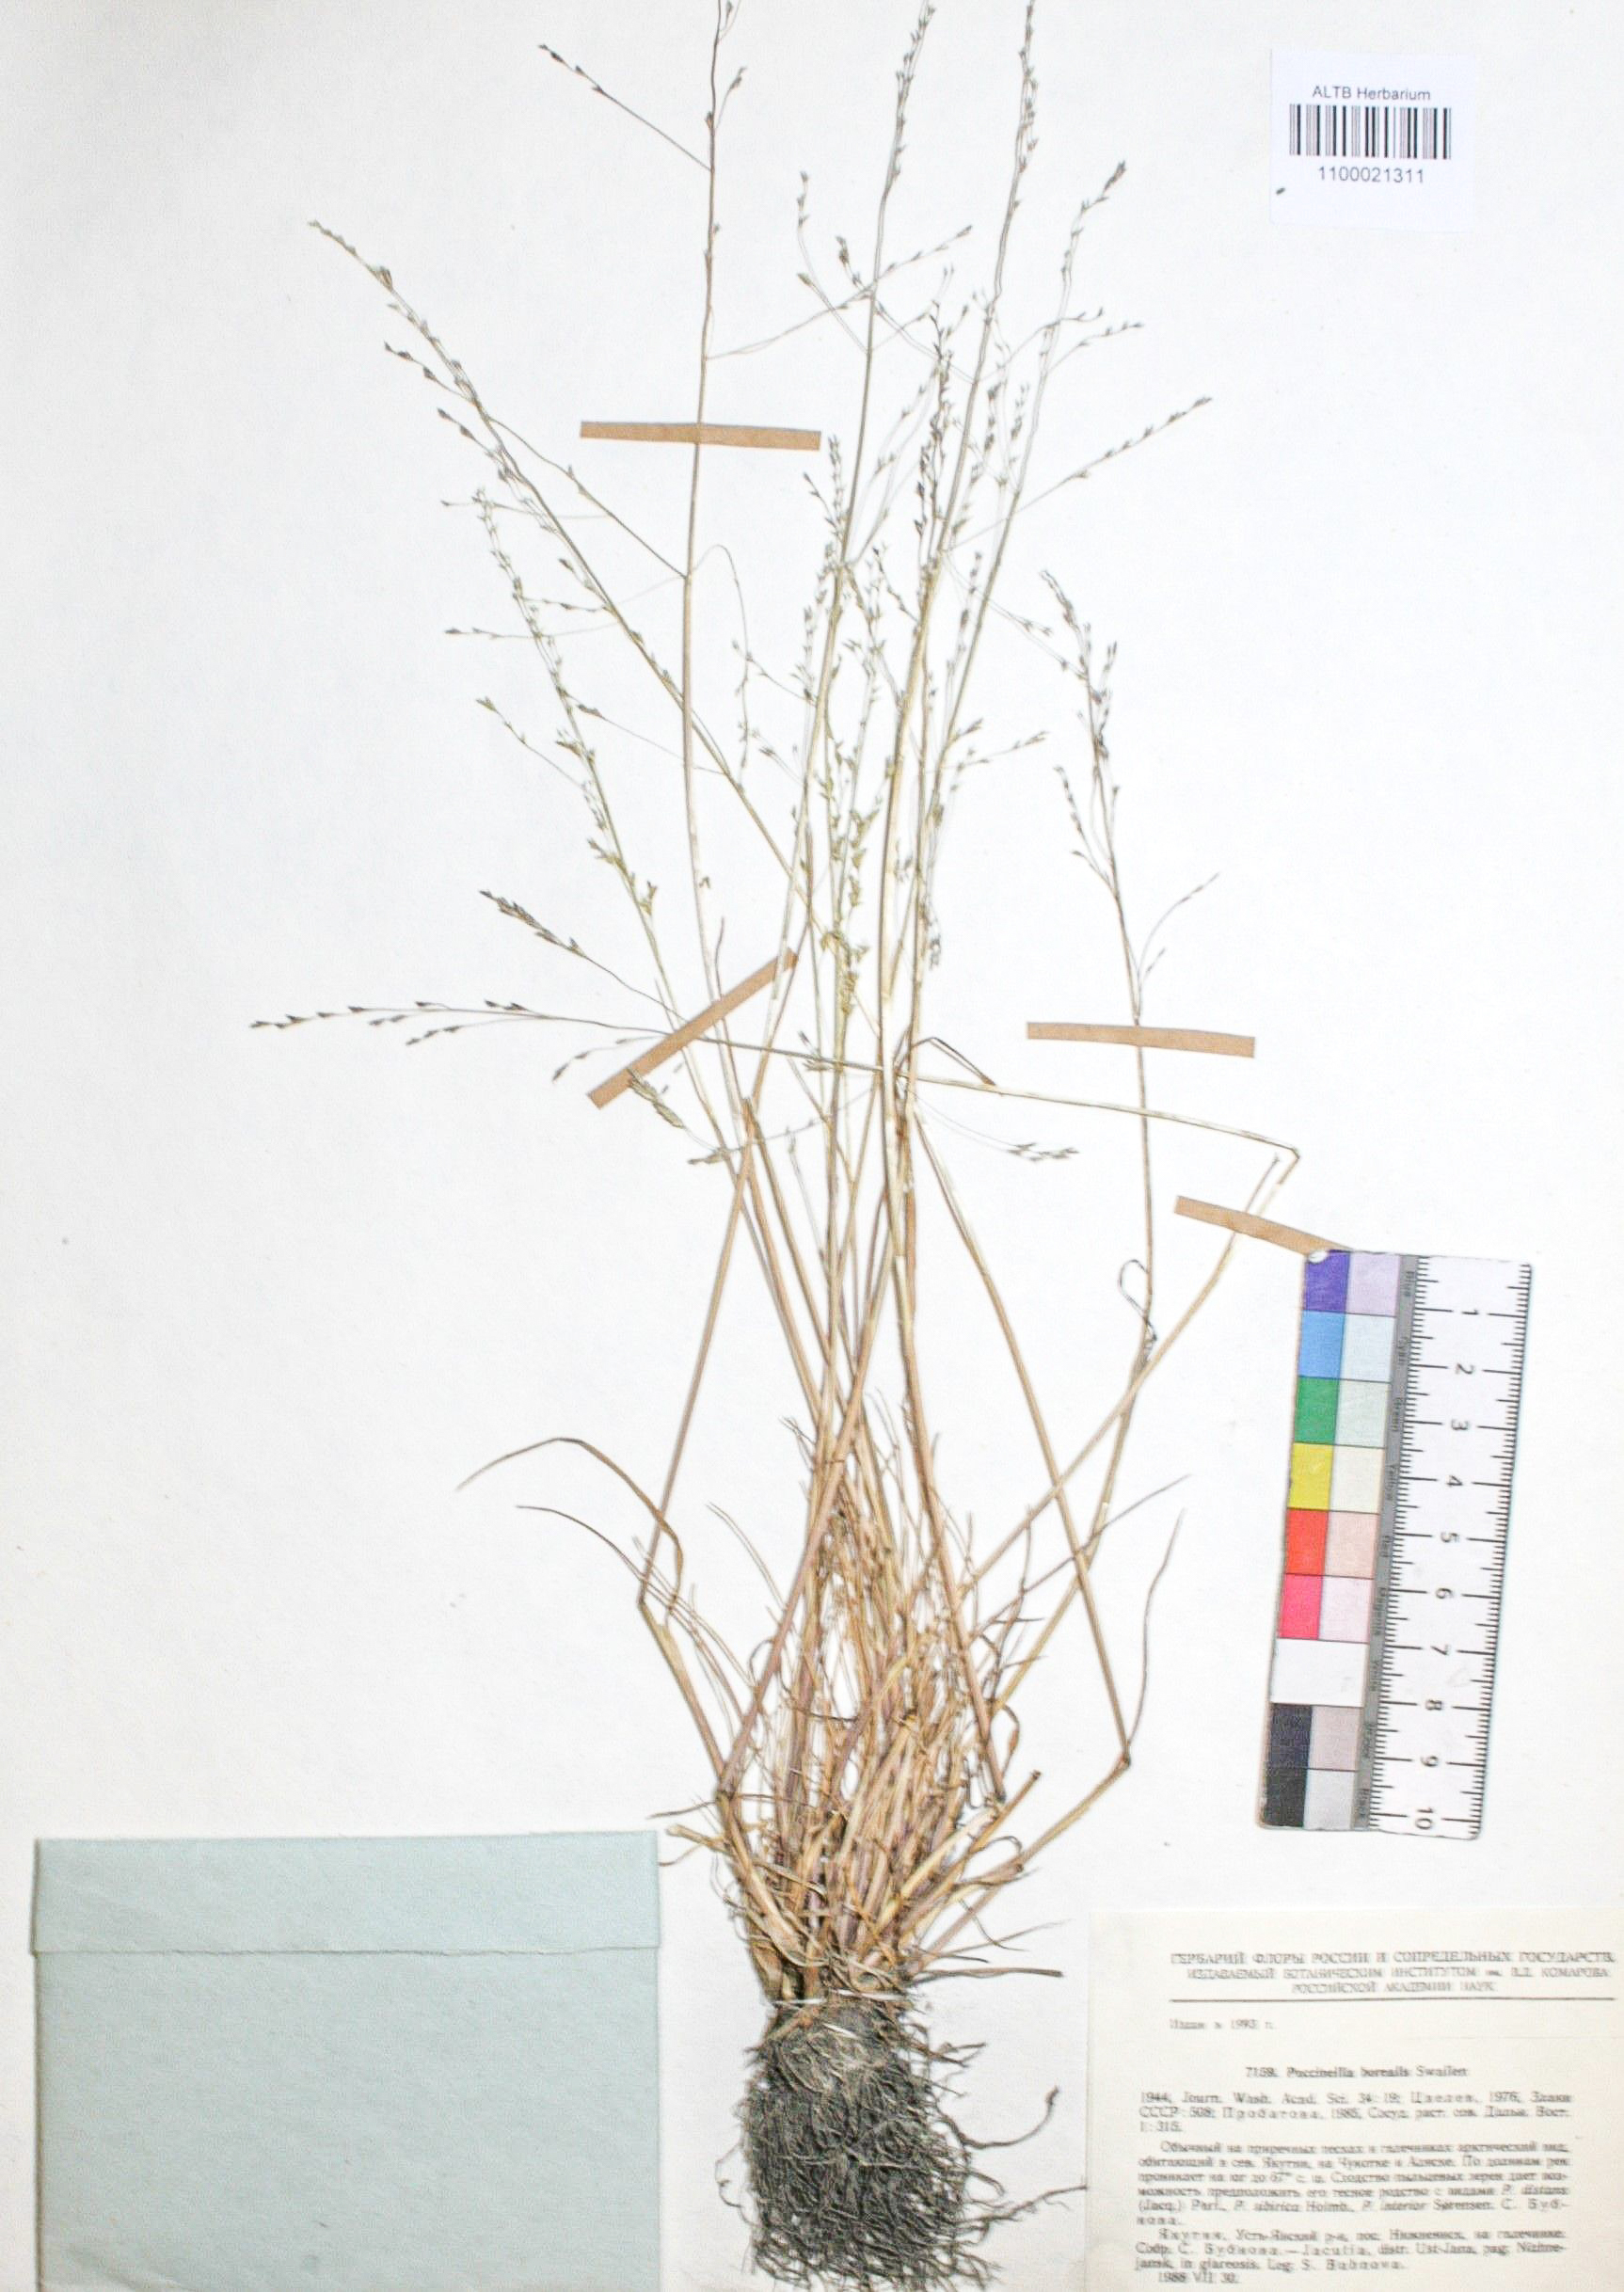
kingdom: Plantae
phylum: Tracheophyta
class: Liliopsida
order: Poales
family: Poaceae
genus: Puccinellia
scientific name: Puccinellia nuttalliana
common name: Nuttall's alkali grass
